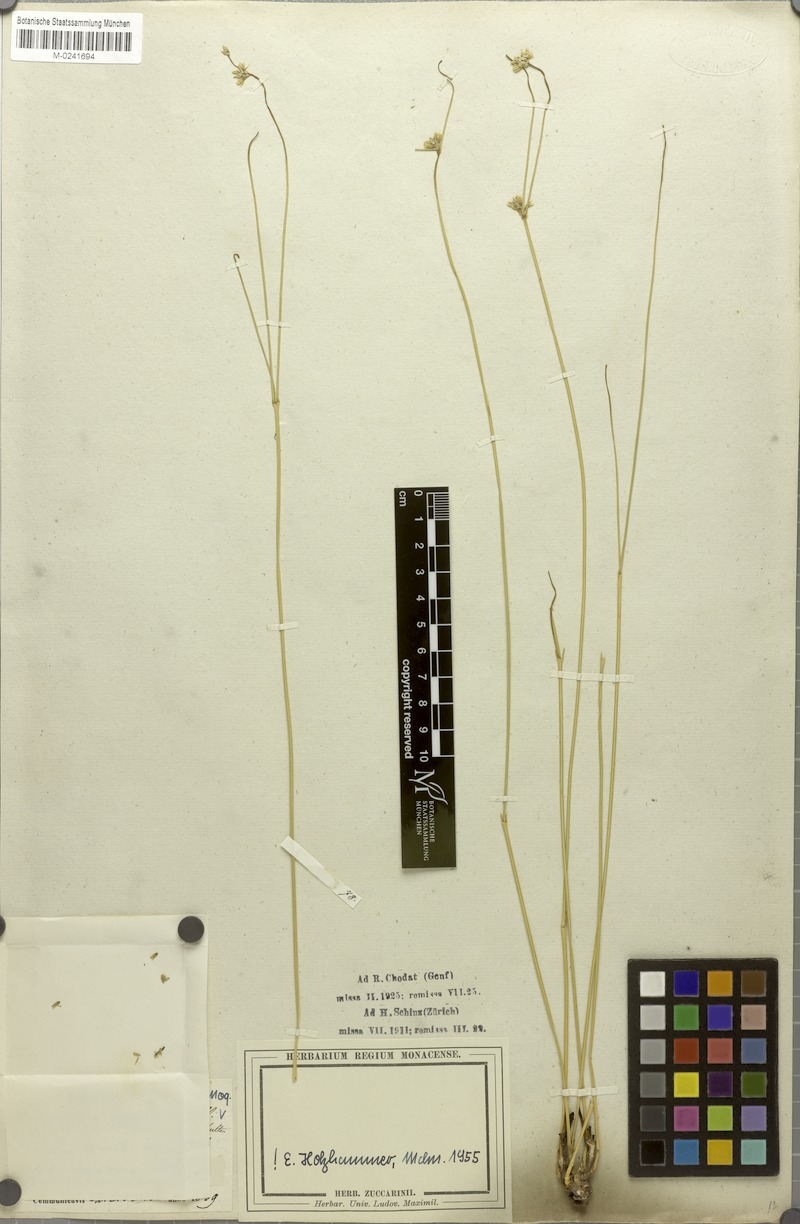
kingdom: Plantae
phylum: Tracheophyta
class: Magnoliopsida
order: Caryophyllales
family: Amaranthaceae
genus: Gomphrena
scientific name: Gomphrena aphylla
